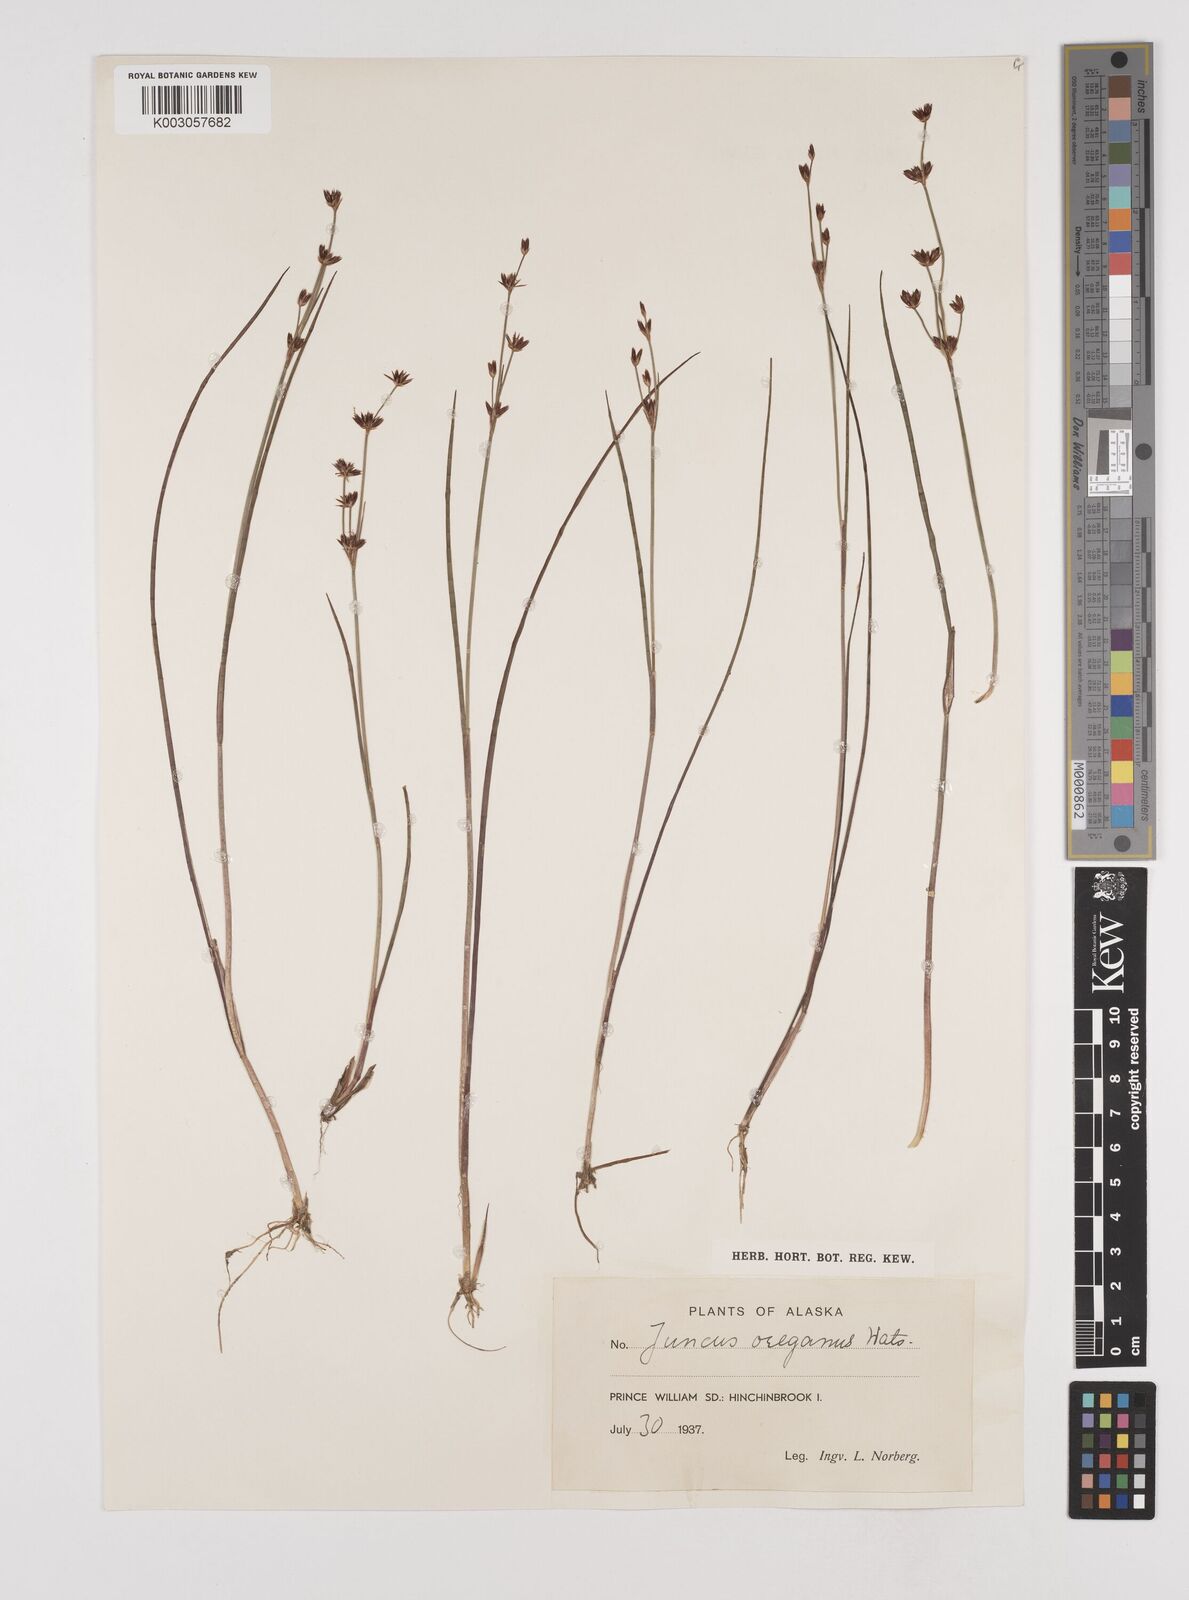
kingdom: Plantae
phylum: Tracheophyta
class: Liliopsida
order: Poales
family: Juncaceae
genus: Juncus
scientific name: Juncus supiniformis
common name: Hairy-leaved rush
